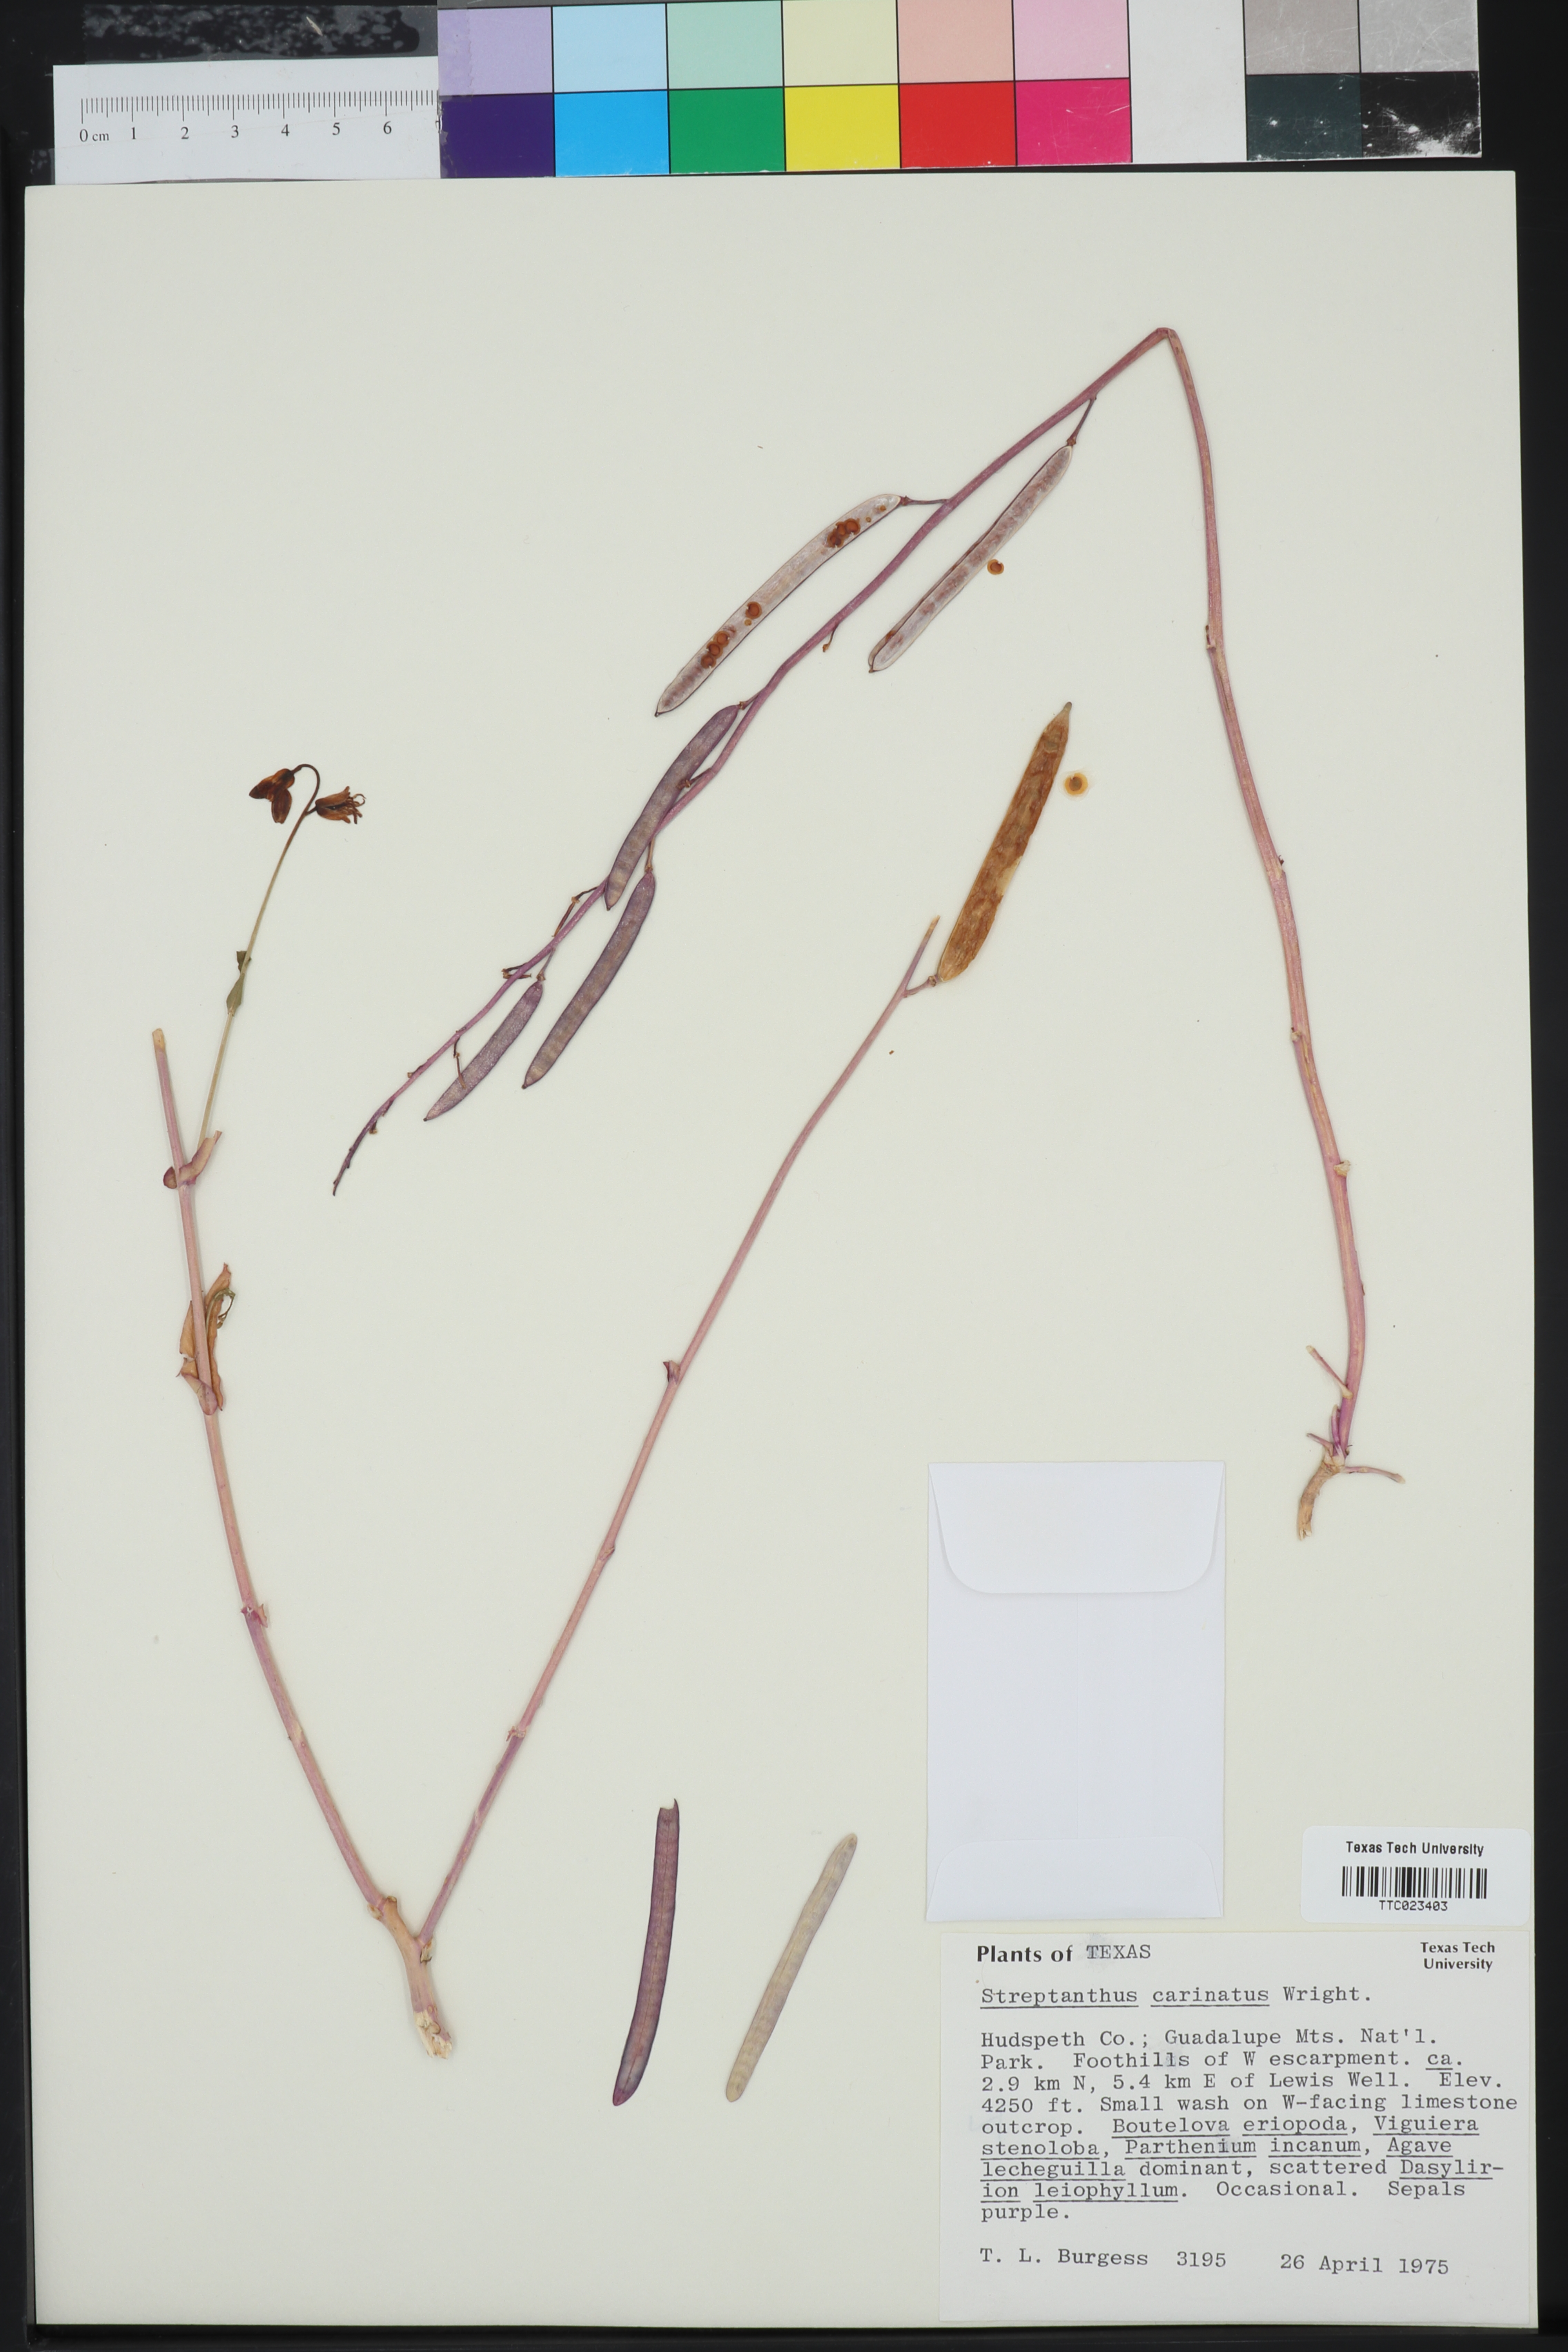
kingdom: Plantae
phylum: Tracheophyta
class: Magnoliopsida
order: Brassicales
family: Brassicaceae
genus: Streptanthus
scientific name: Streptanthus carinatus
